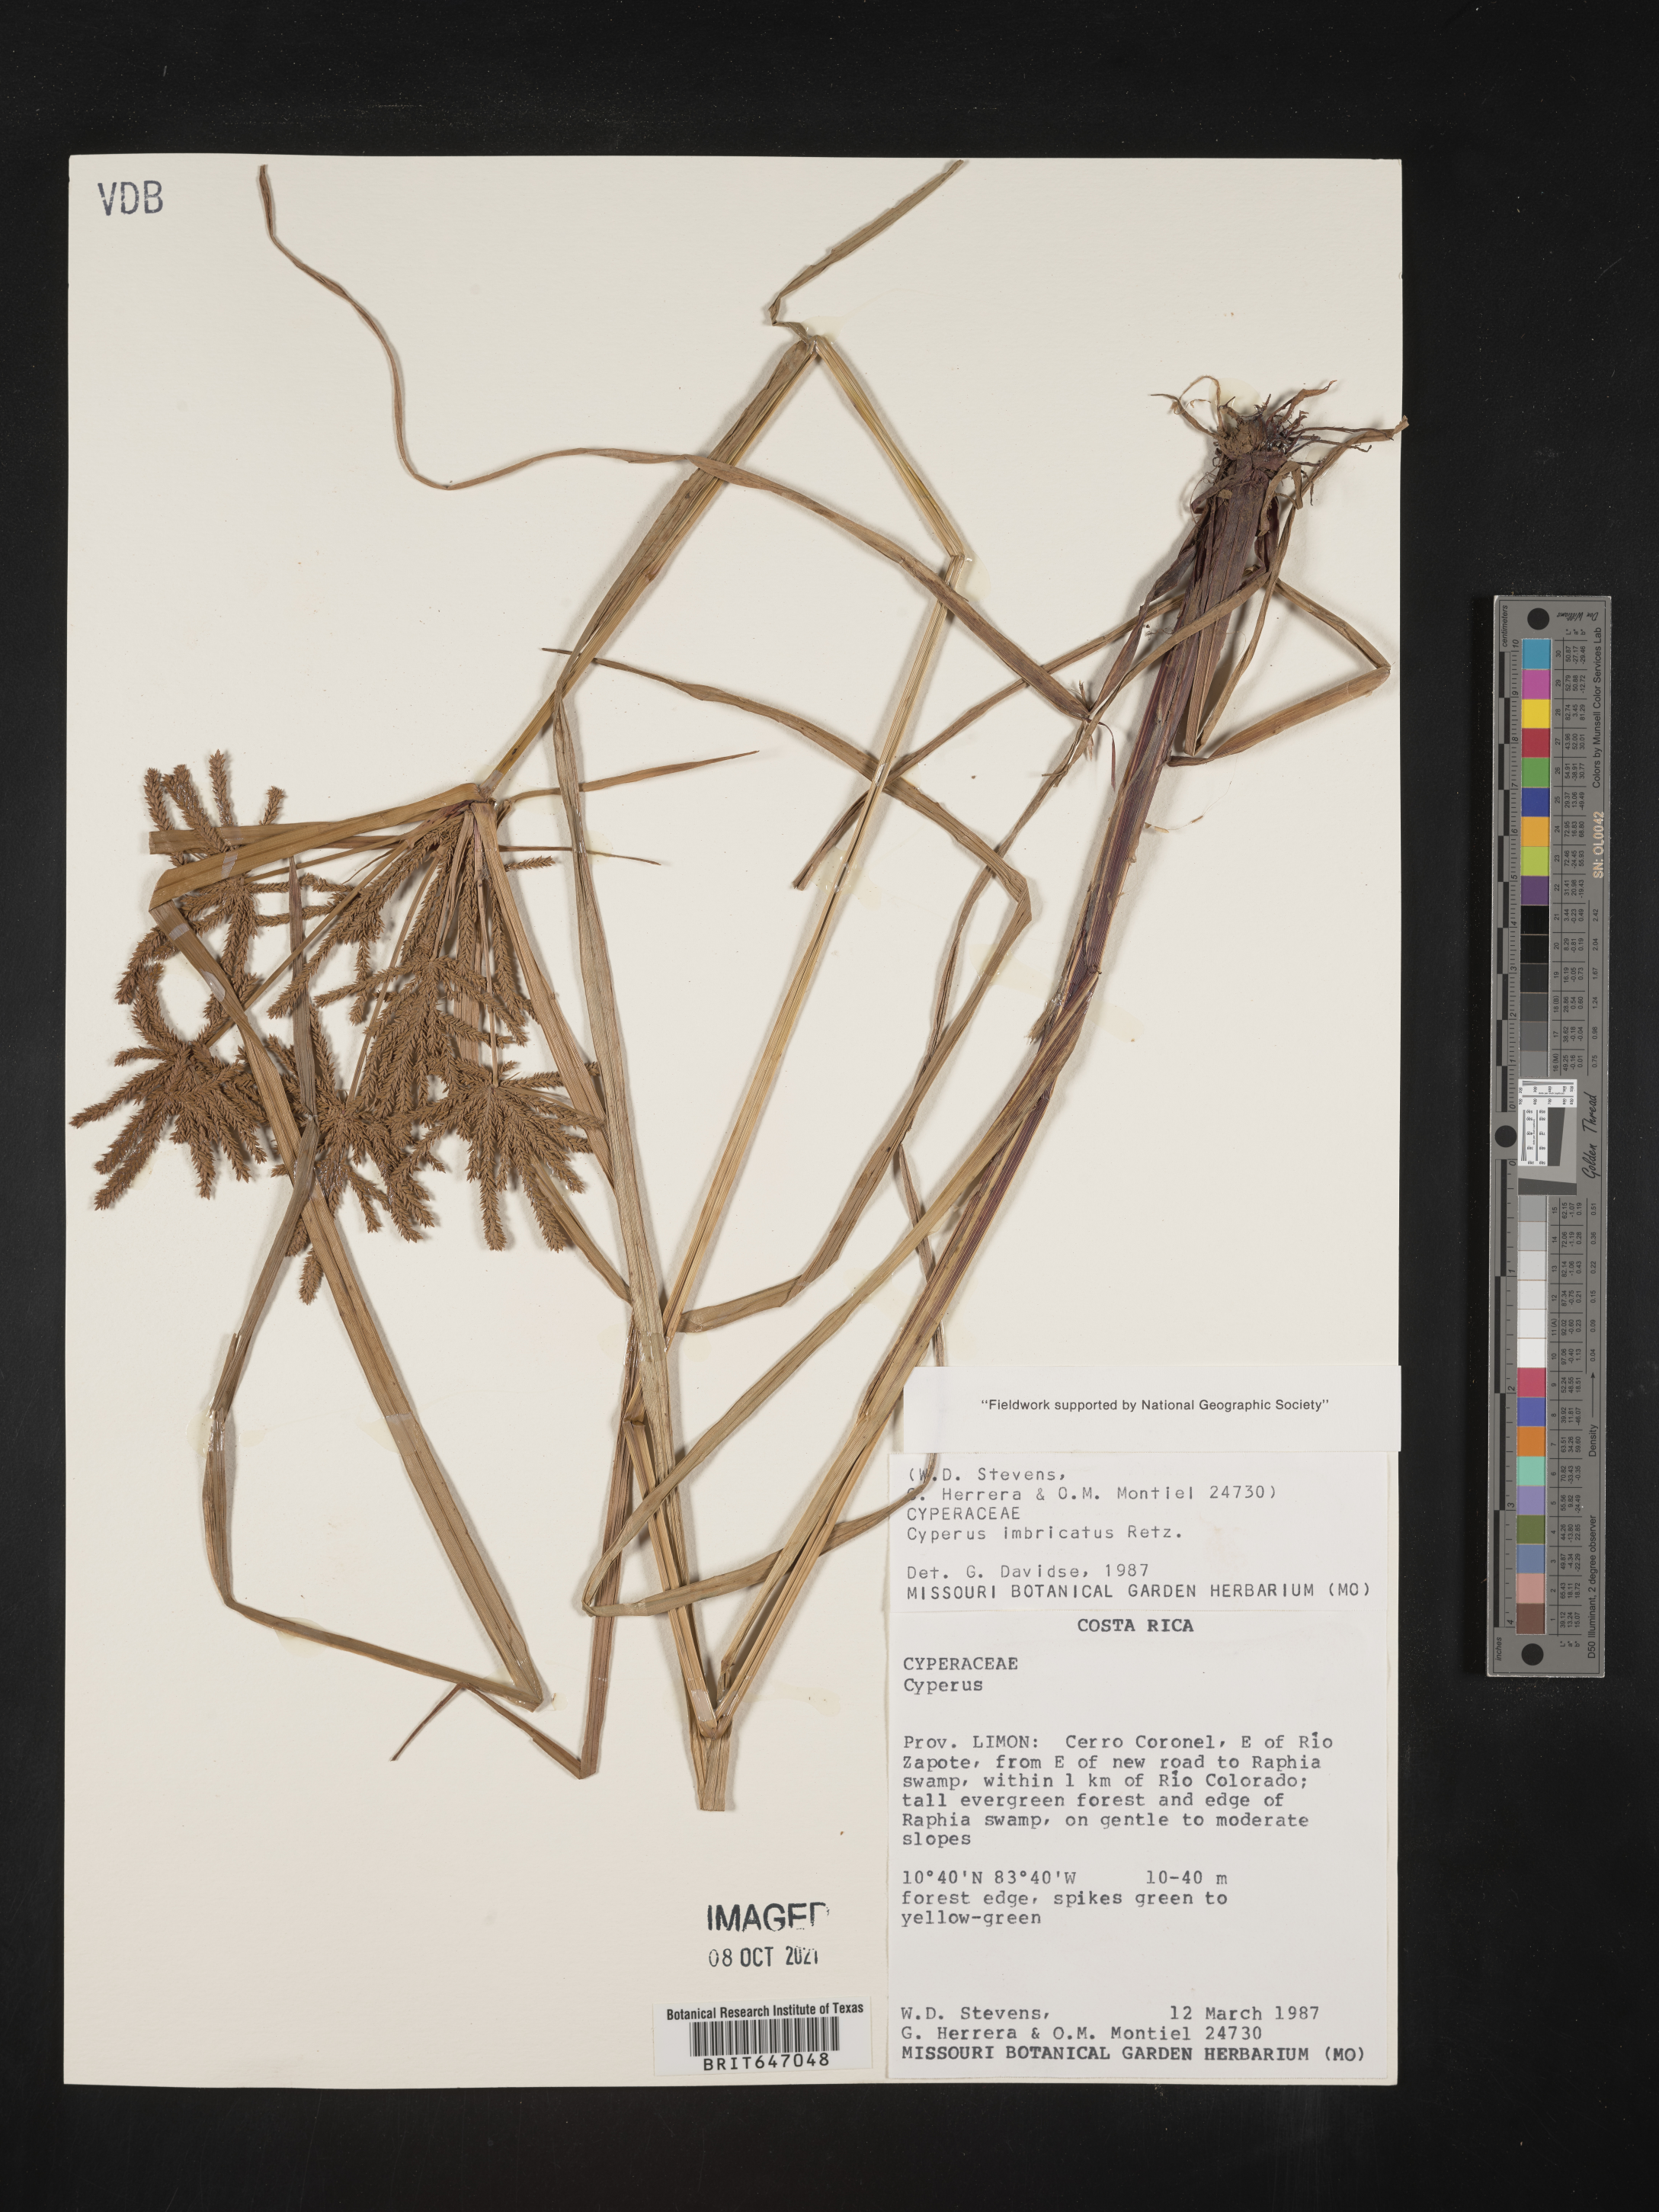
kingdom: Plantae
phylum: Tracheophyta
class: Liliopsida
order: Poales
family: Cyperaceae
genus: Cyperus
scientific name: Cyperus imbricatus
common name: Shingle flatsedge
